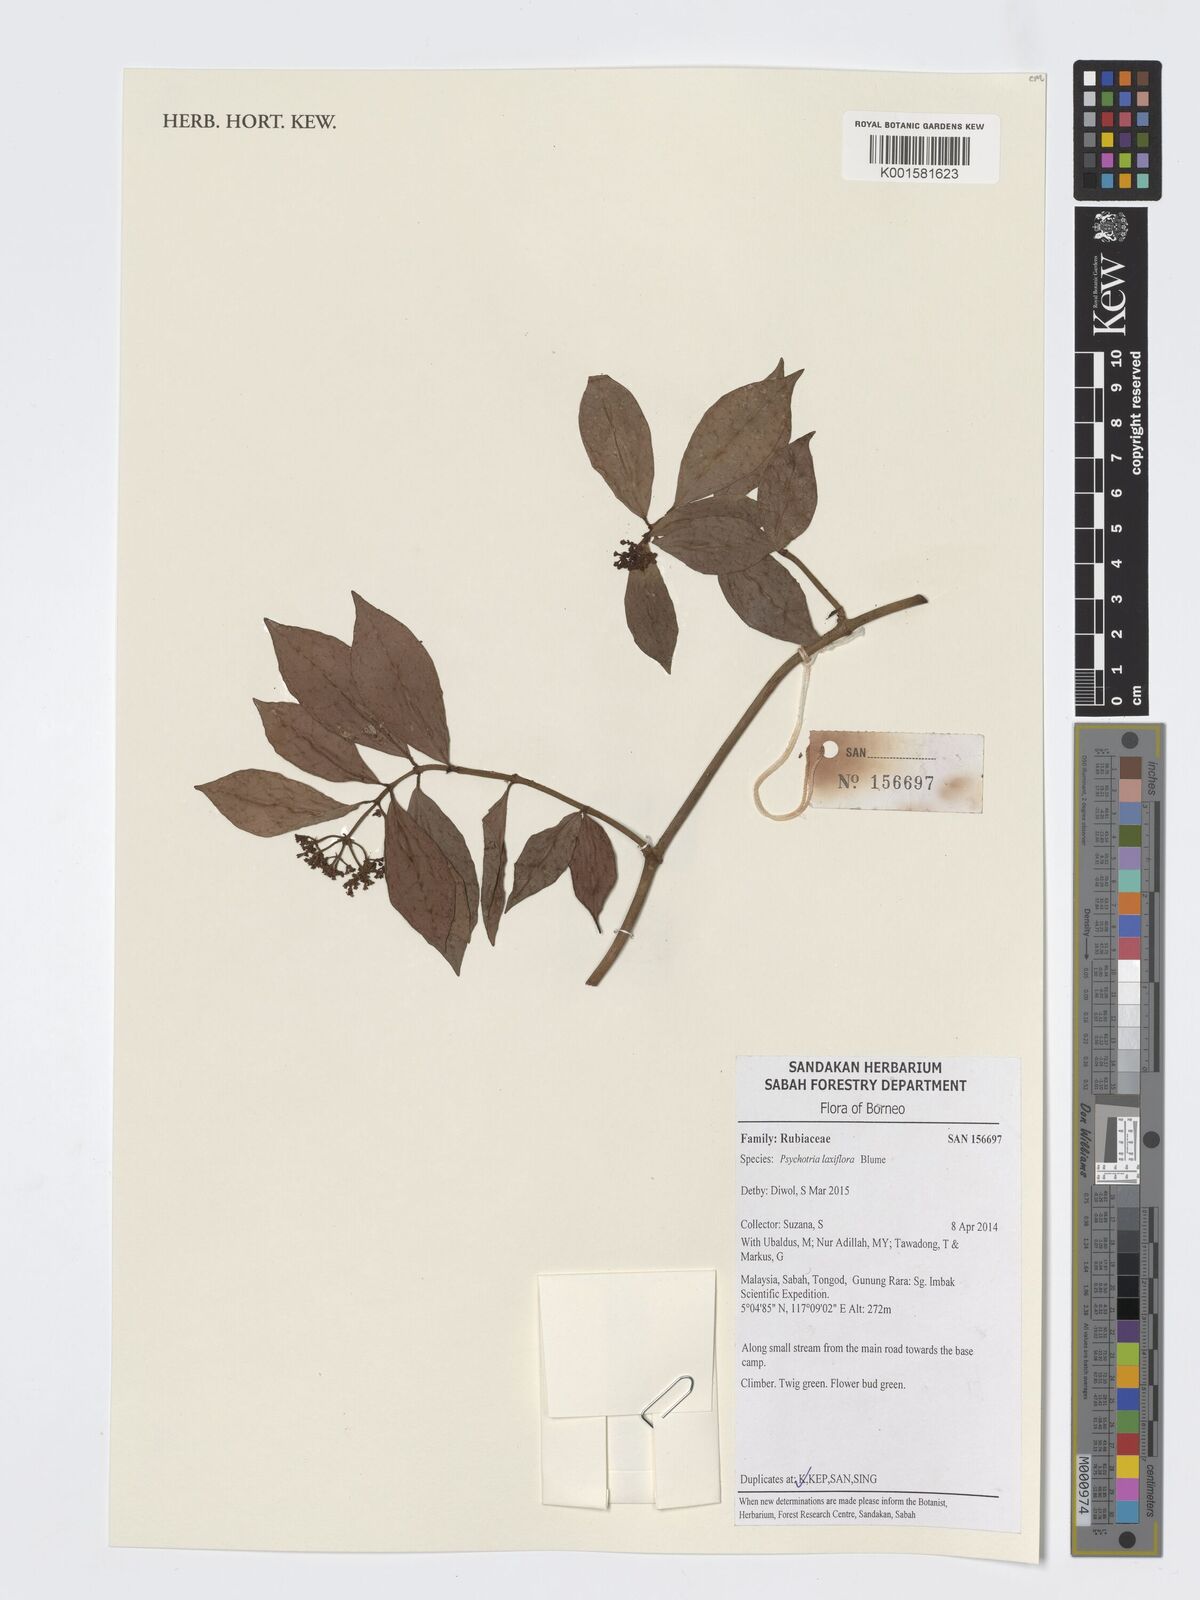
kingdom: Plantae
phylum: Tracheophyta
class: Magnoliopsida
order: Gentianales
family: Rubiaceae
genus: Psychotria
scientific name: Psychotria laxiflora
